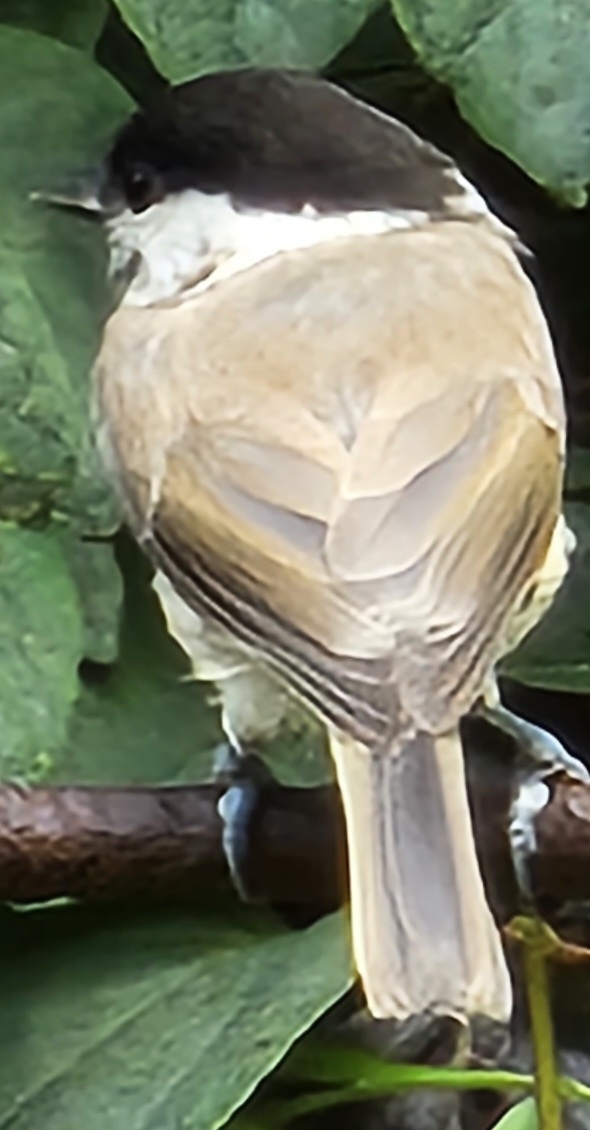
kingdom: Animalia
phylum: Chordata
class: Aves
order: Passeriformes
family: Paridae
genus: Poecile
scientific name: Poecile palustris
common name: Sumpmejse
